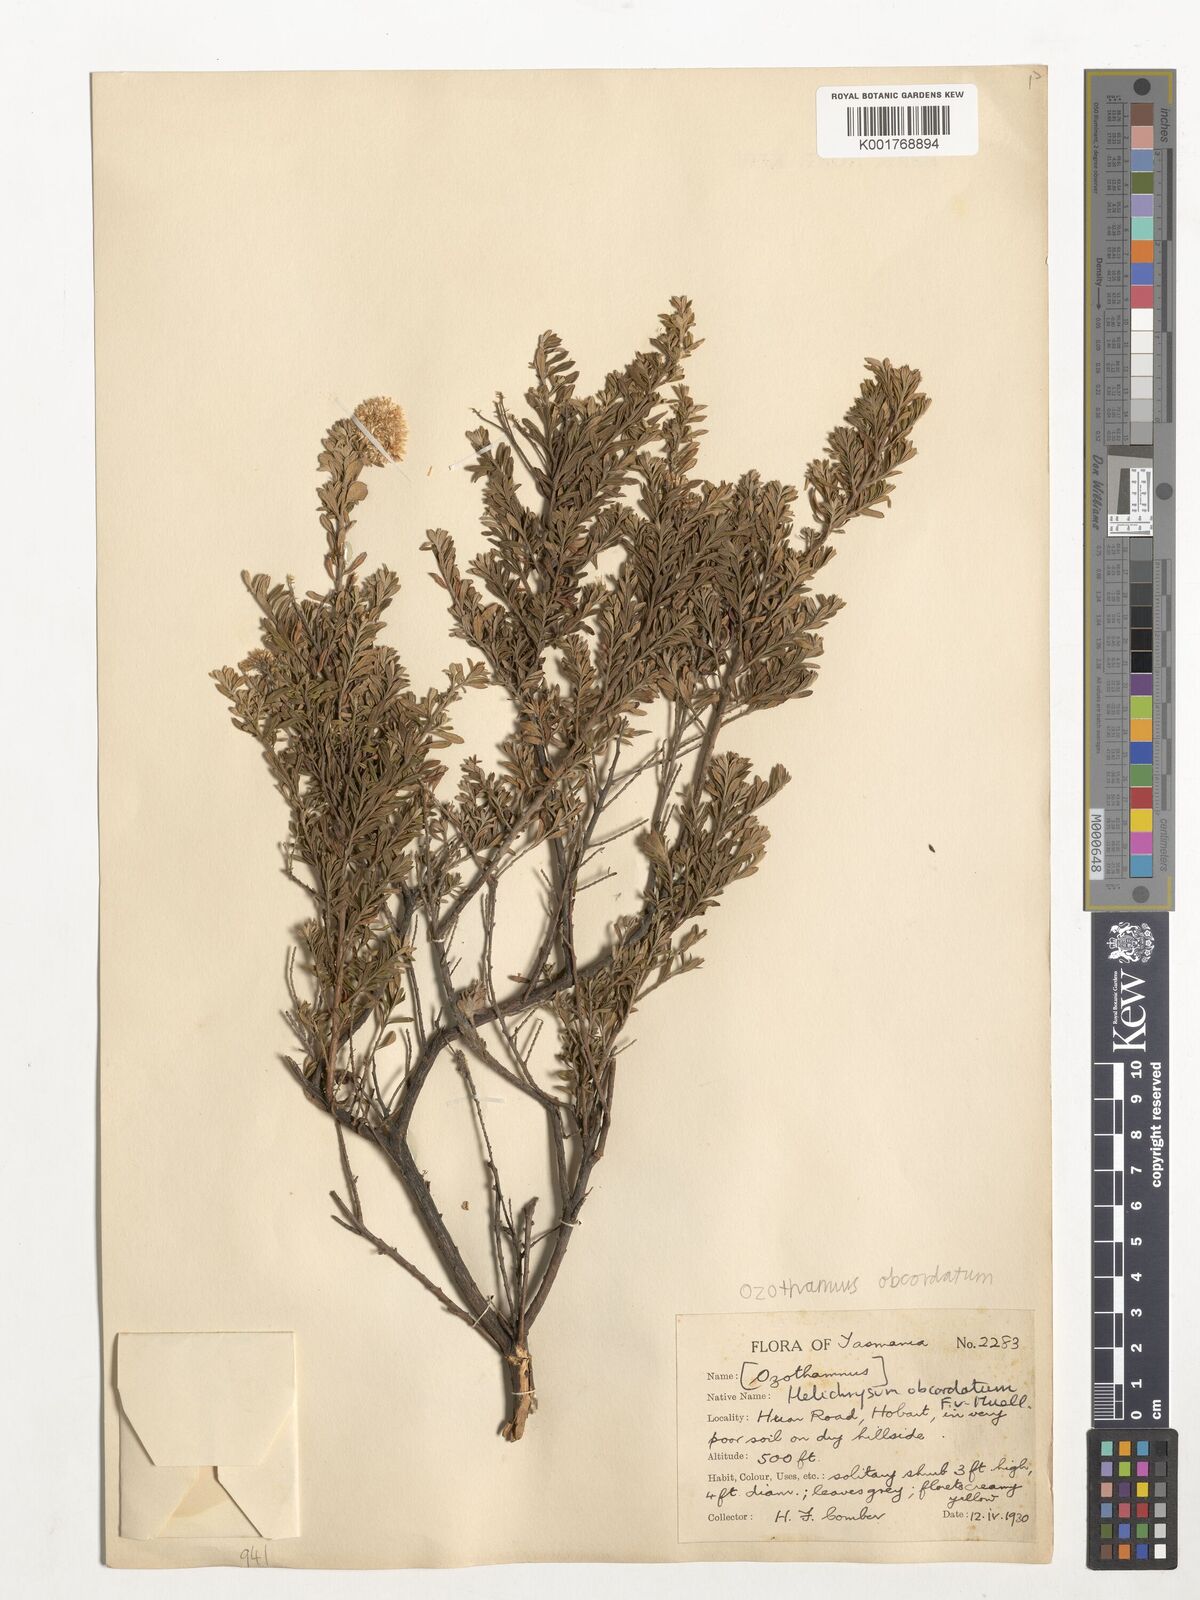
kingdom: Plantae
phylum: Tracheophyta
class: Magnoliopsida
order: Asterales
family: Asteraceae
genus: Ozothamnus
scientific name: Ozothamnus obcordatus
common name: Grey everlasting
